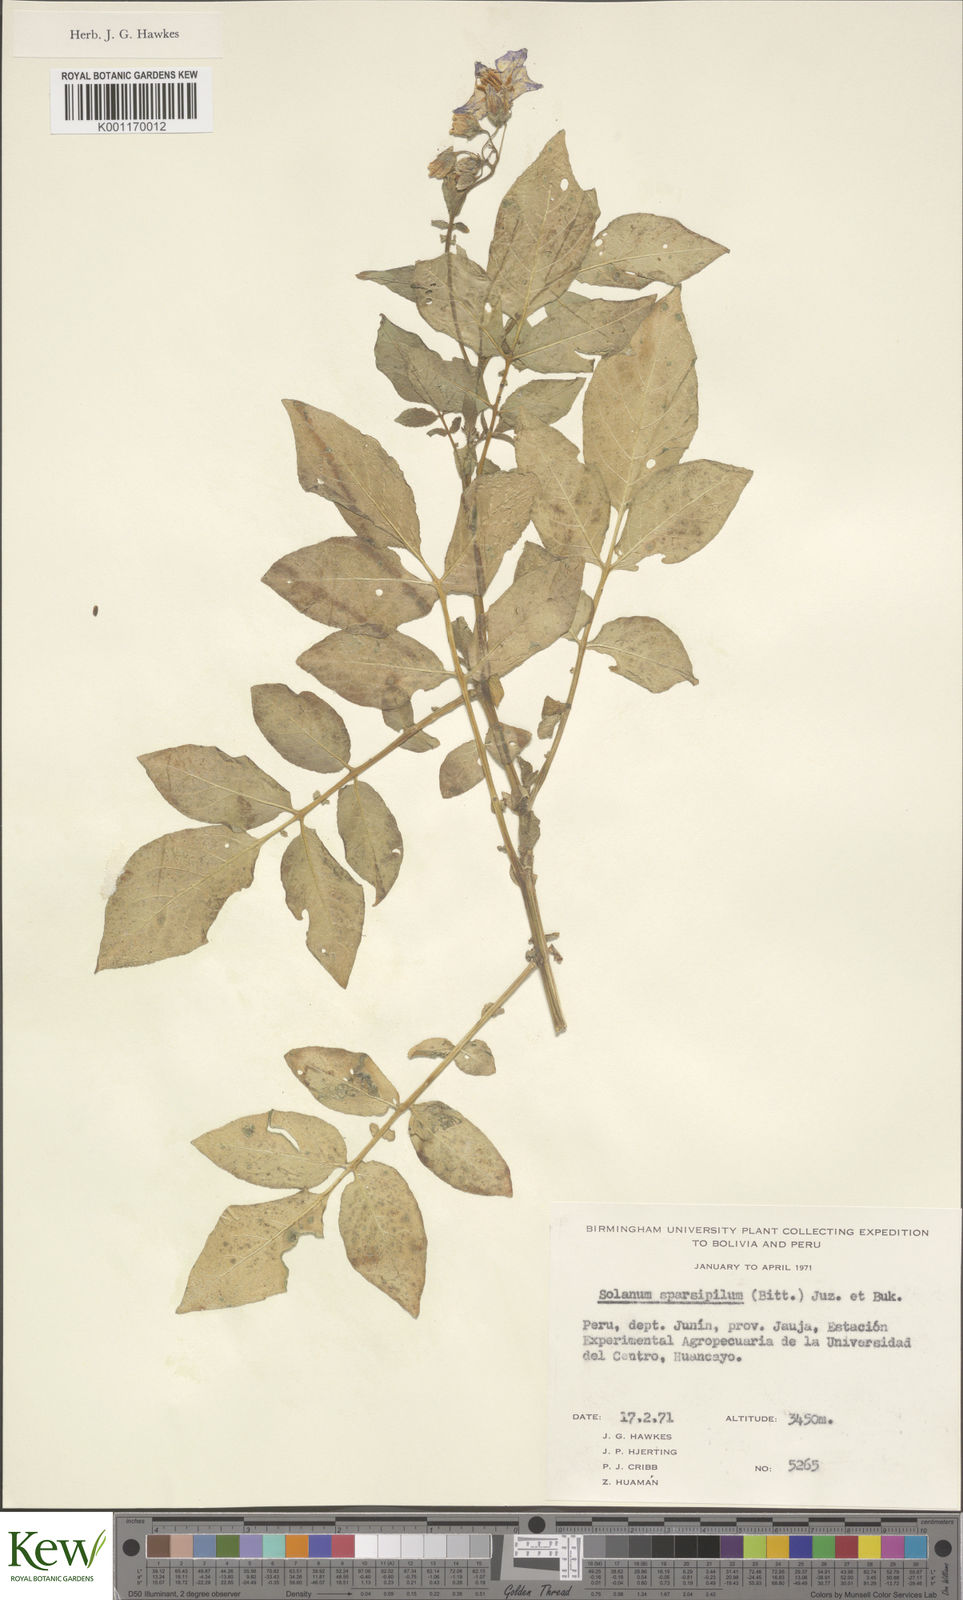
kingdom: Plantae
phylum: Tracheophyta
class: Magnoliopsida
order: Solanales
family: Solanaceae
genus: Solanum
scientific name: Solanum brevicaule
